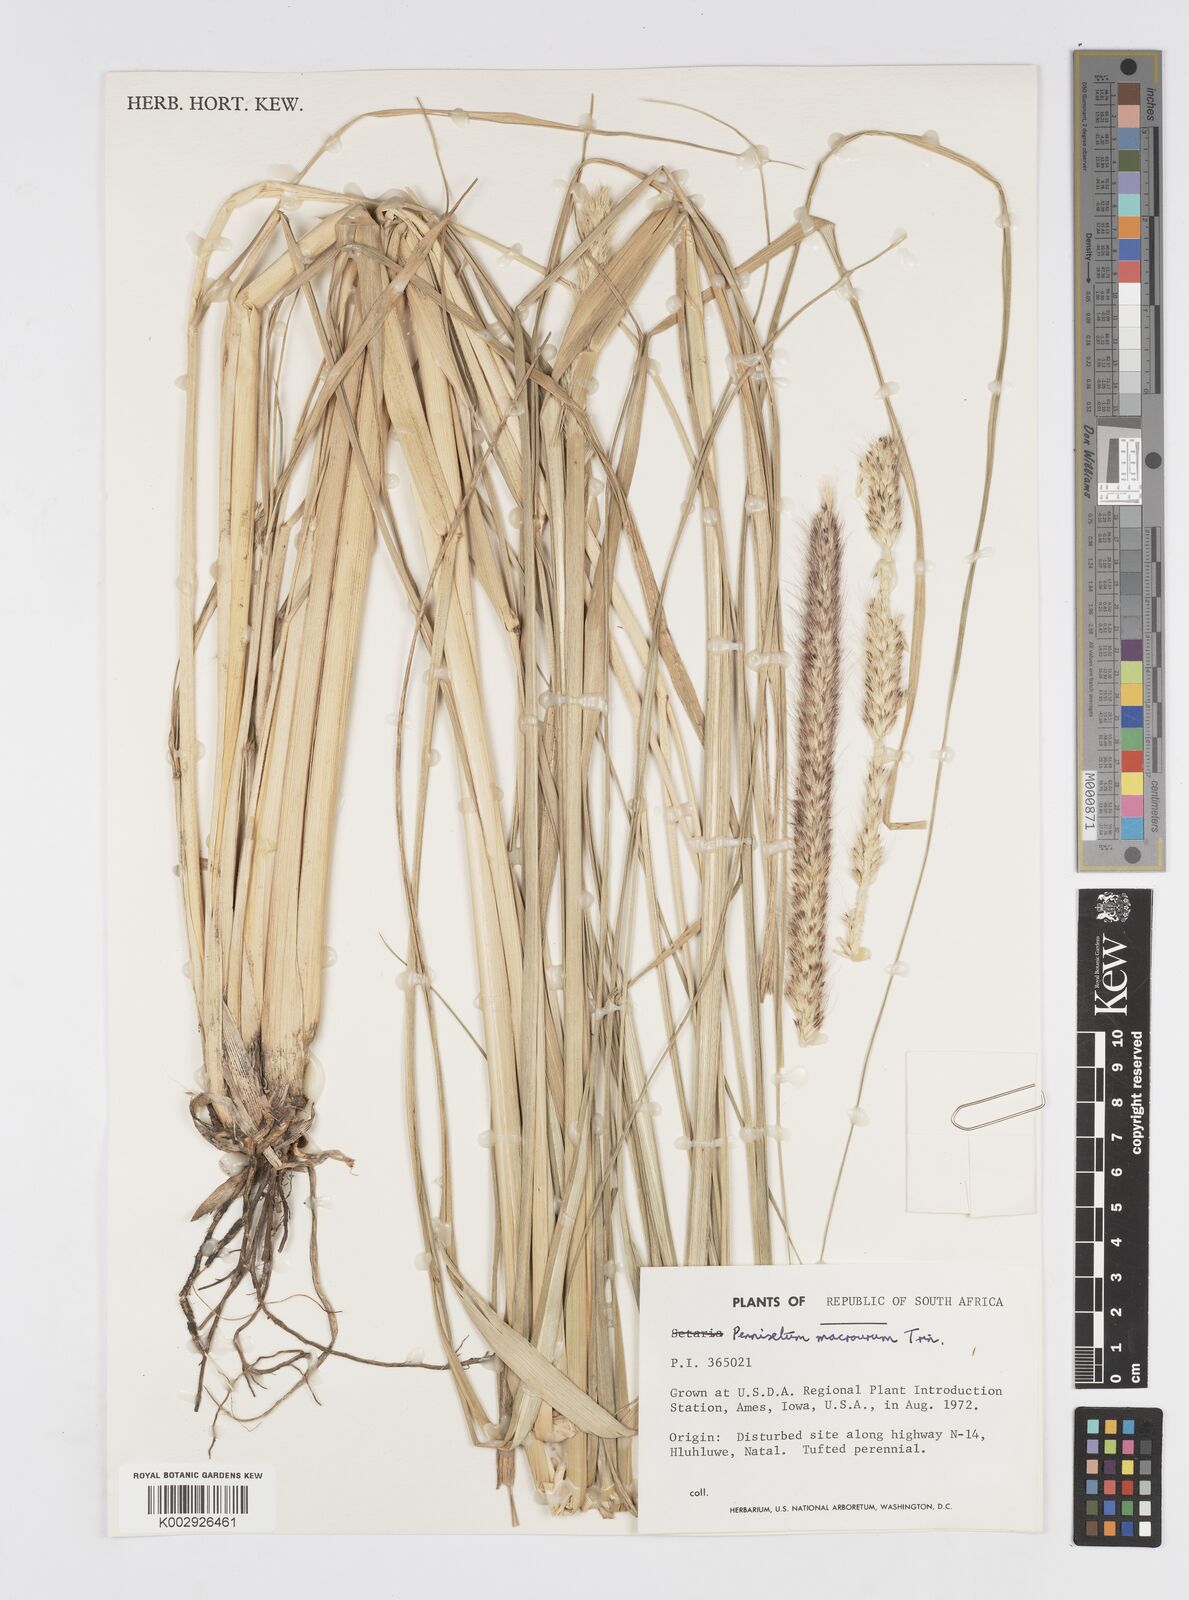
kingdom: Plantae
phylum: Tracheophyta
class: Liliopsida
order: Poales
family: Poaceae
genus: Cenchrus
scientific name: Cenchrus caudatus
